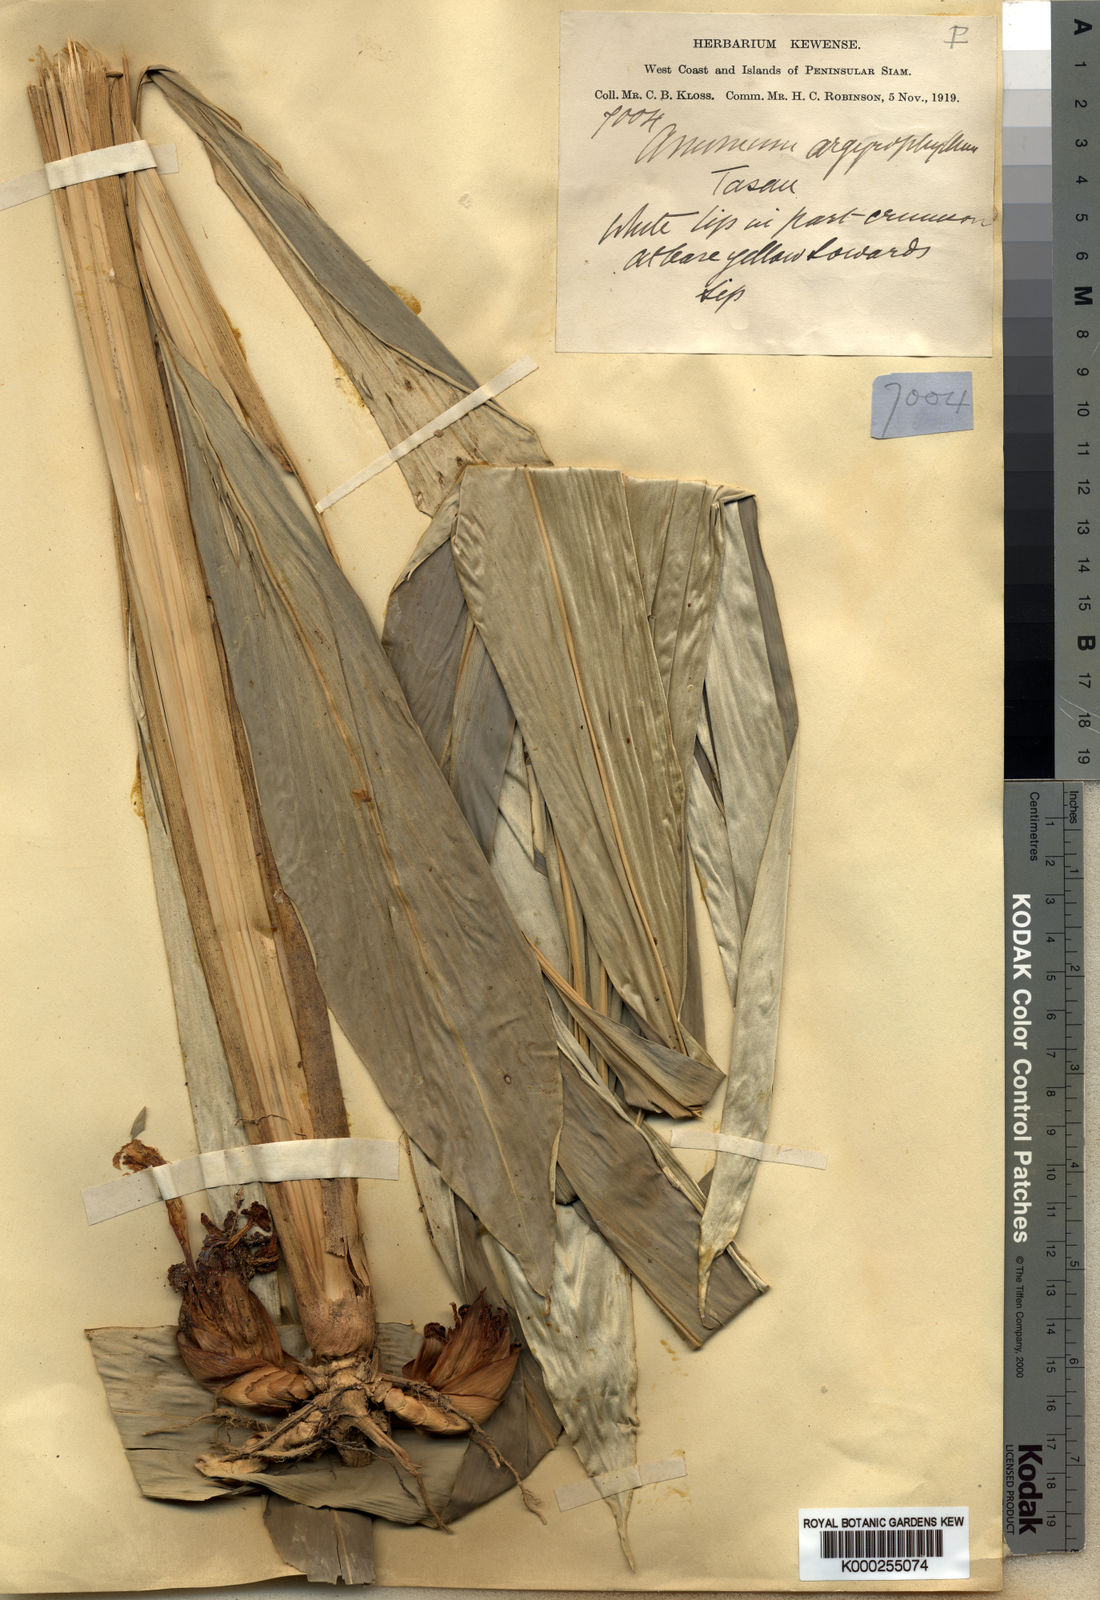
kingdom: Plantae
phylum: Tracheophyta
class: Liliopsida
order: Zingiberales
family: Zingiberaceae
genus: Amomum
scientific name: Amomum argyrophyllum
